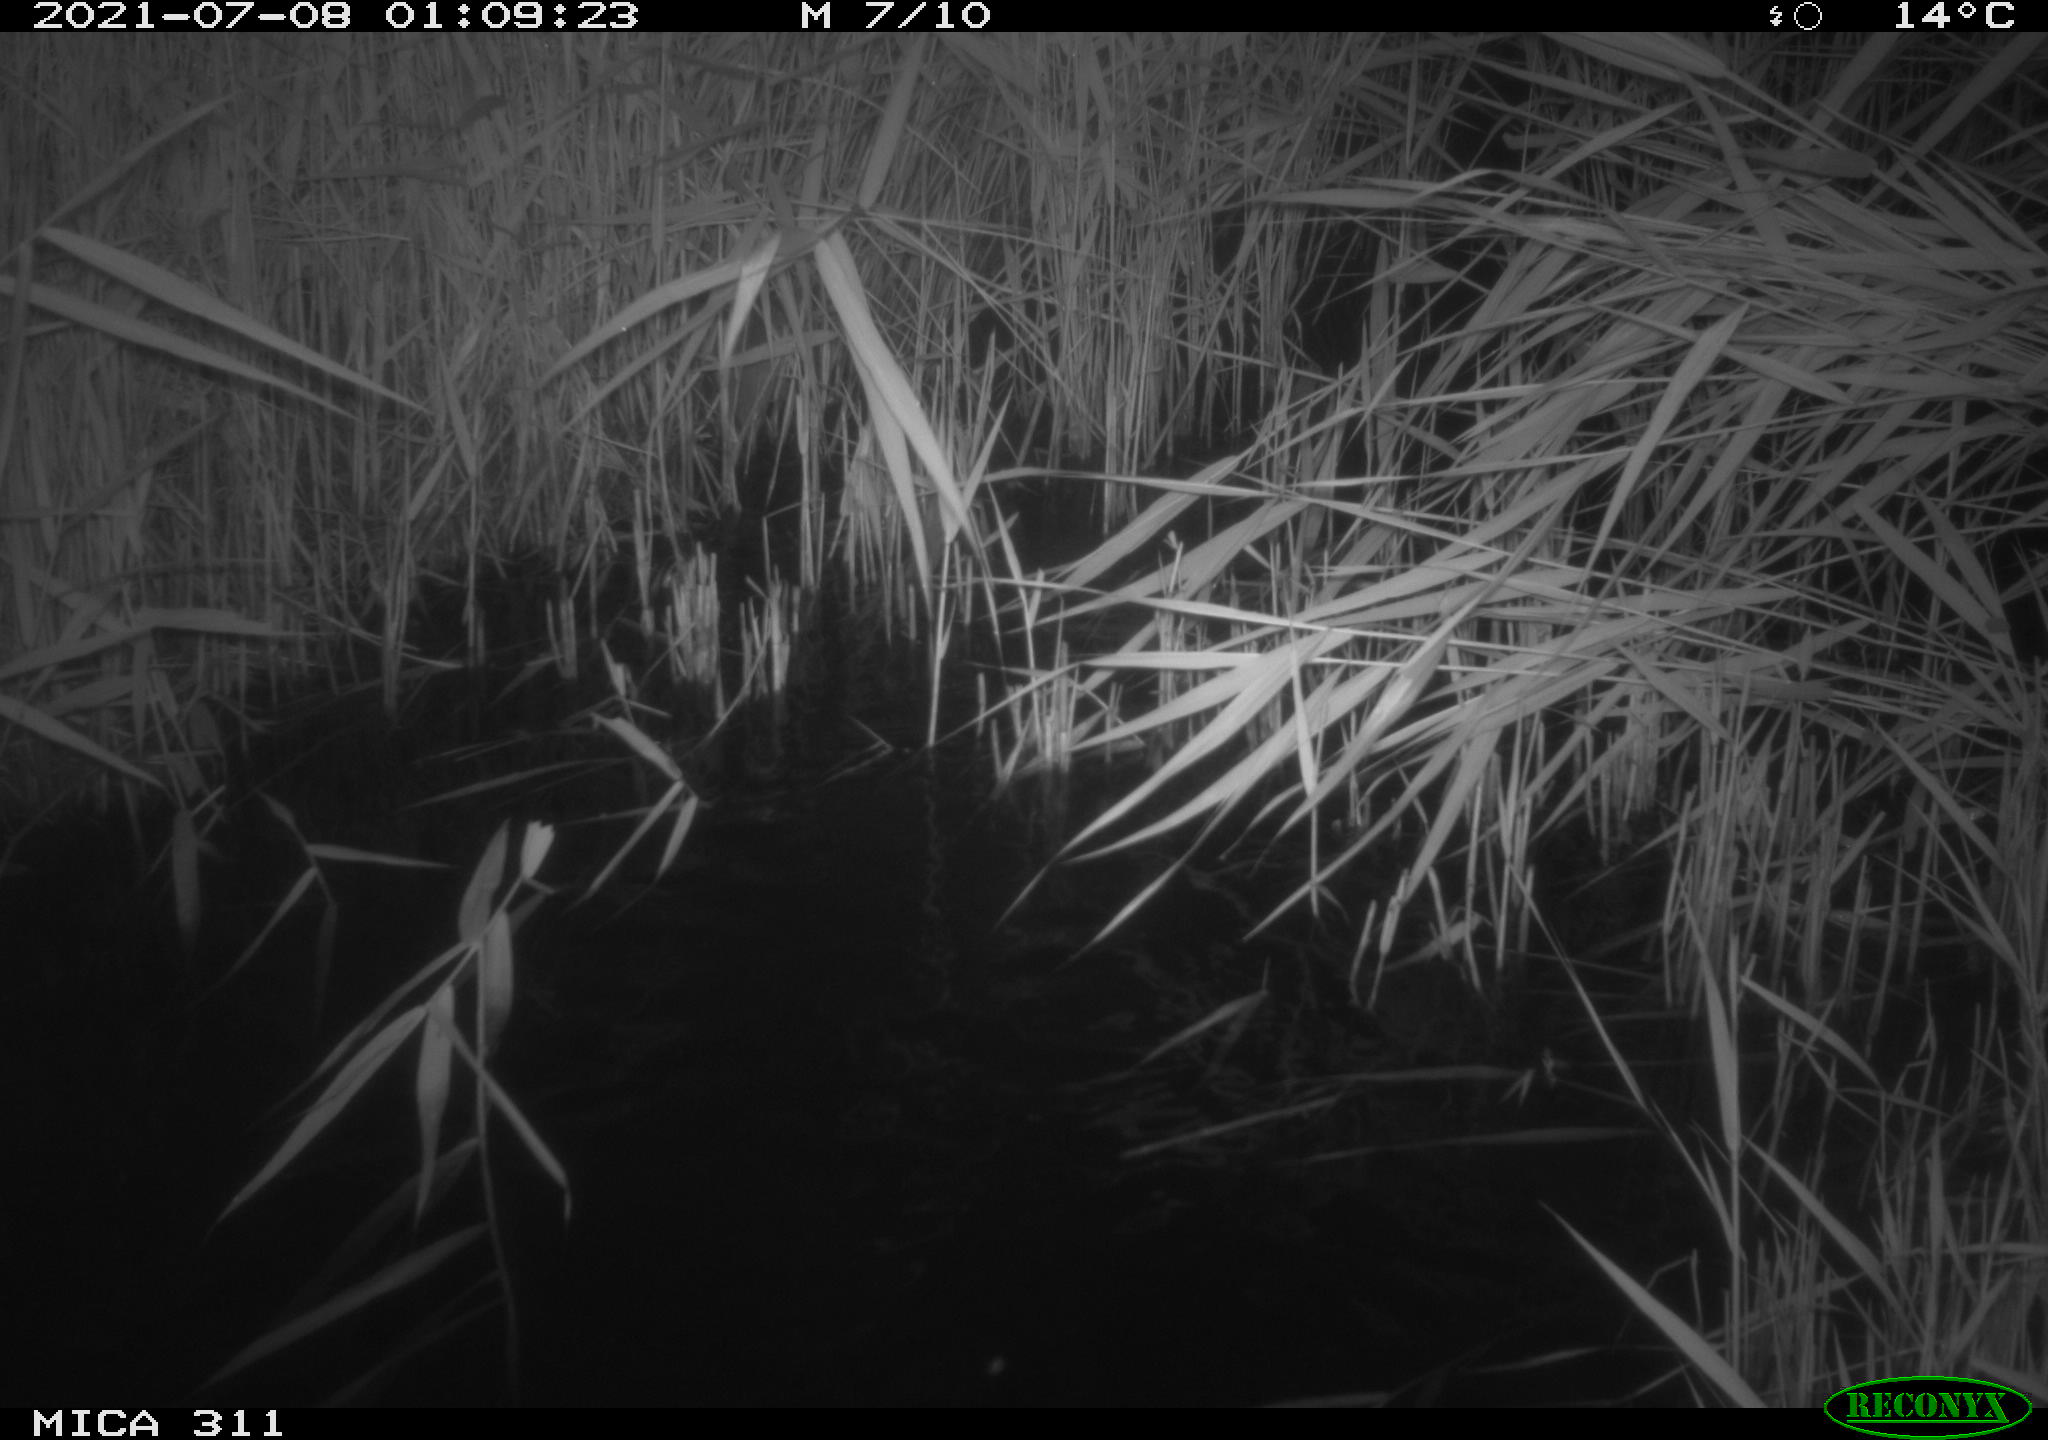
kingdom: Animalia
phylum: Chordata
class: Mammalia
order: Rodentia
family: Cricetidae
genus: Ondatra
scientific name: Ondatra zibethicus
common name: Muskrat
